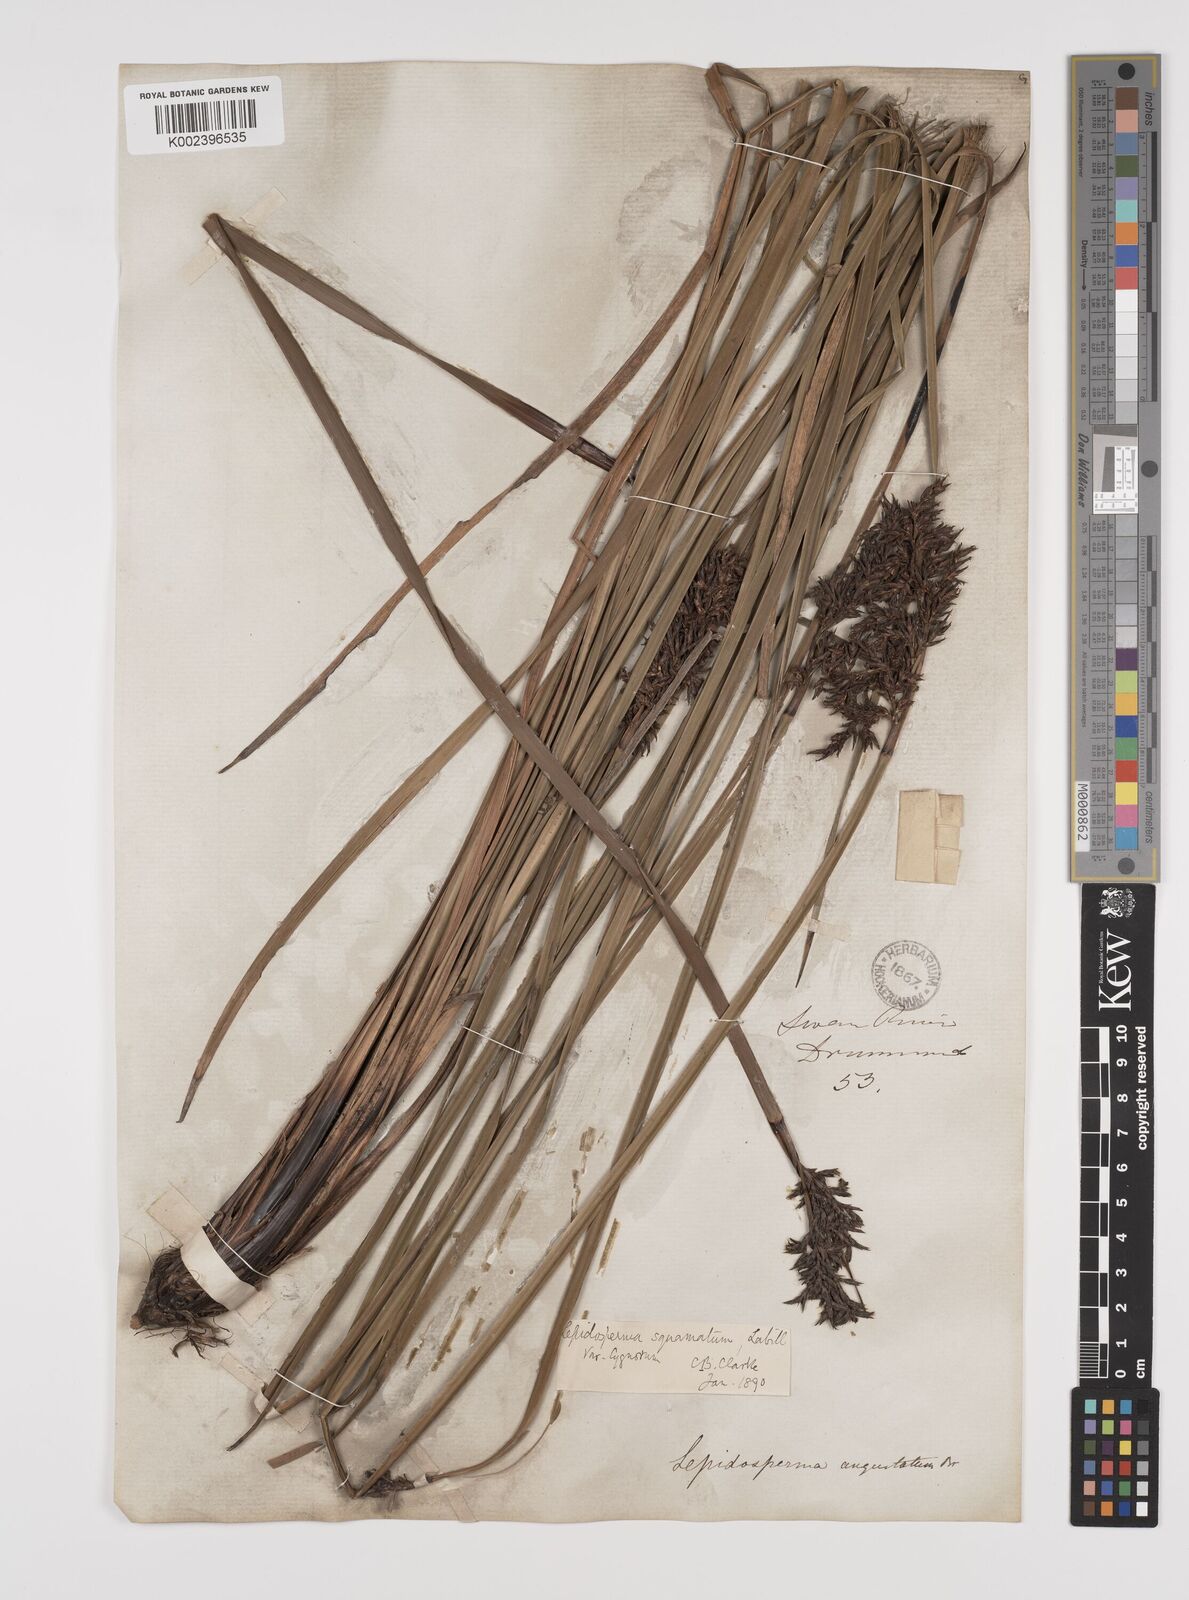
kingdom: Plantae
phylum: Tracheophyta
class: Liliopsida
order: Poales
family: Cyperaceae
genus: Lepidosperma
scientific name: Lepidosperma squamatum
